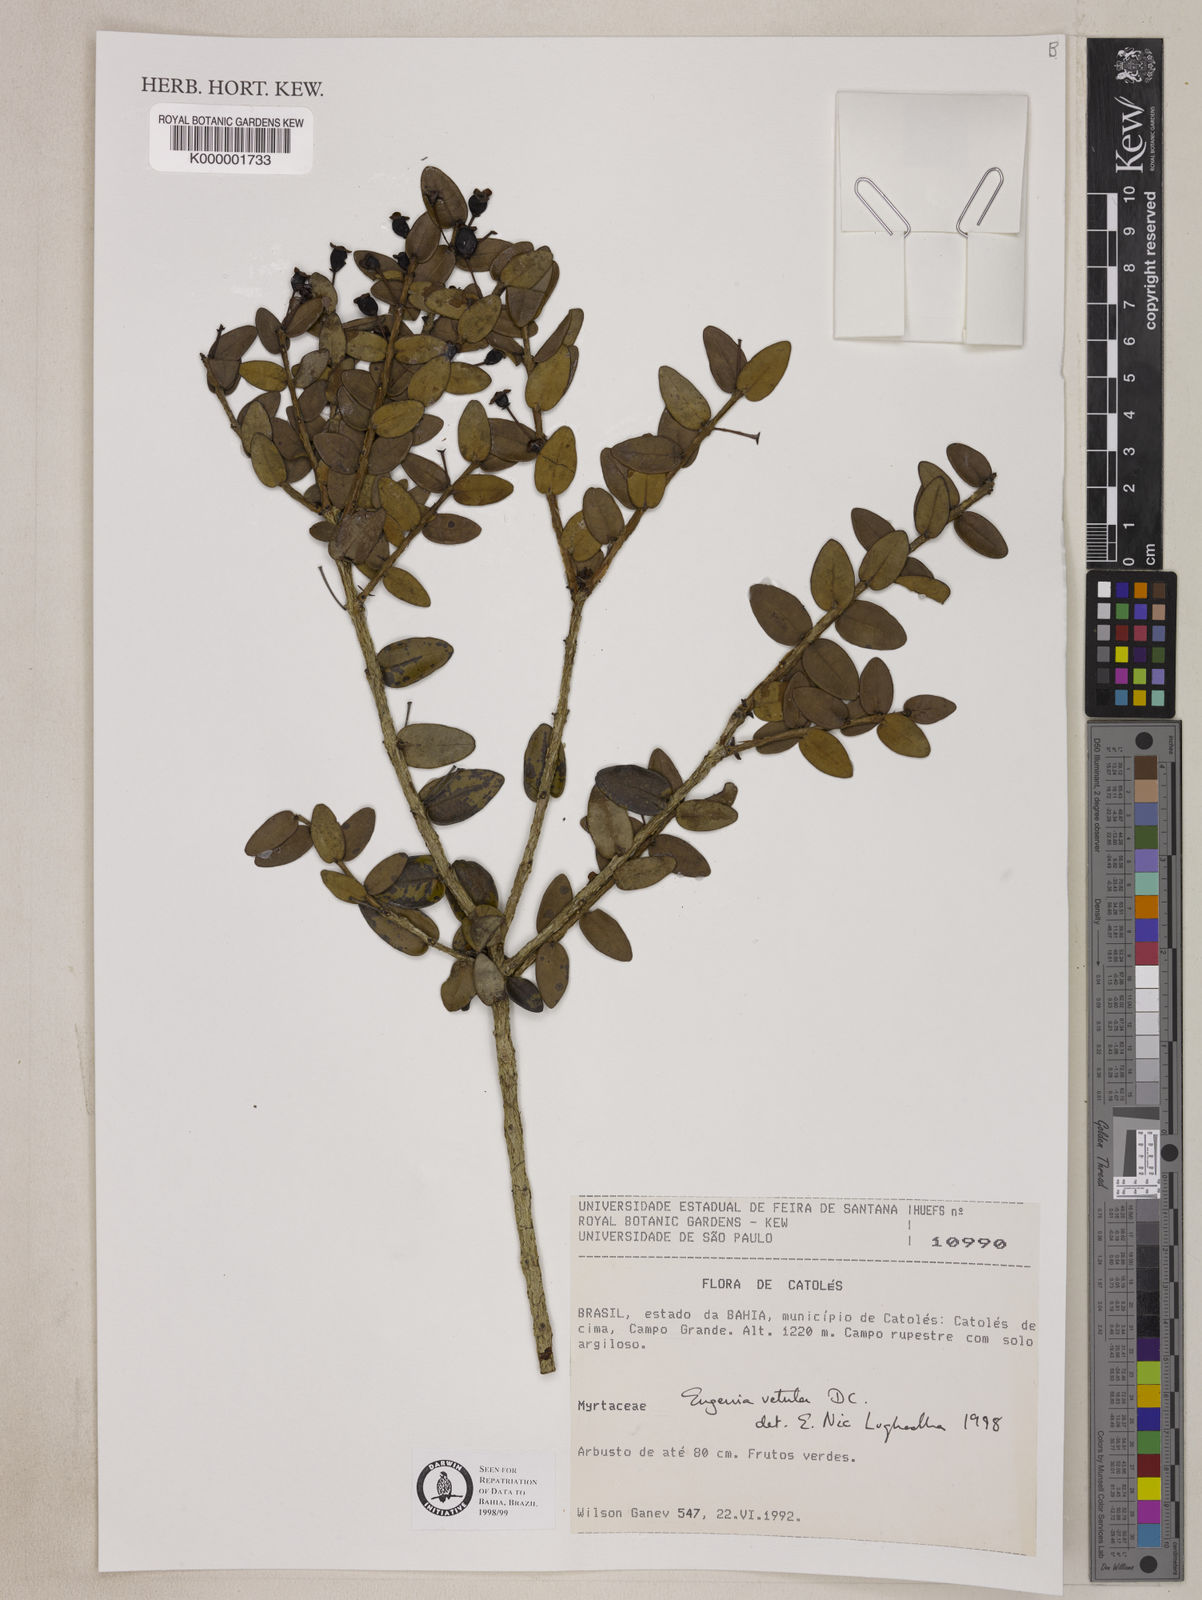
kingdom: Plantae
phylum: Tracheophyta
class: Magnoliopsida
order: Myrtales
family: Myrtaceae
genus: Eugenia
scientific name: Eugenia vetula
